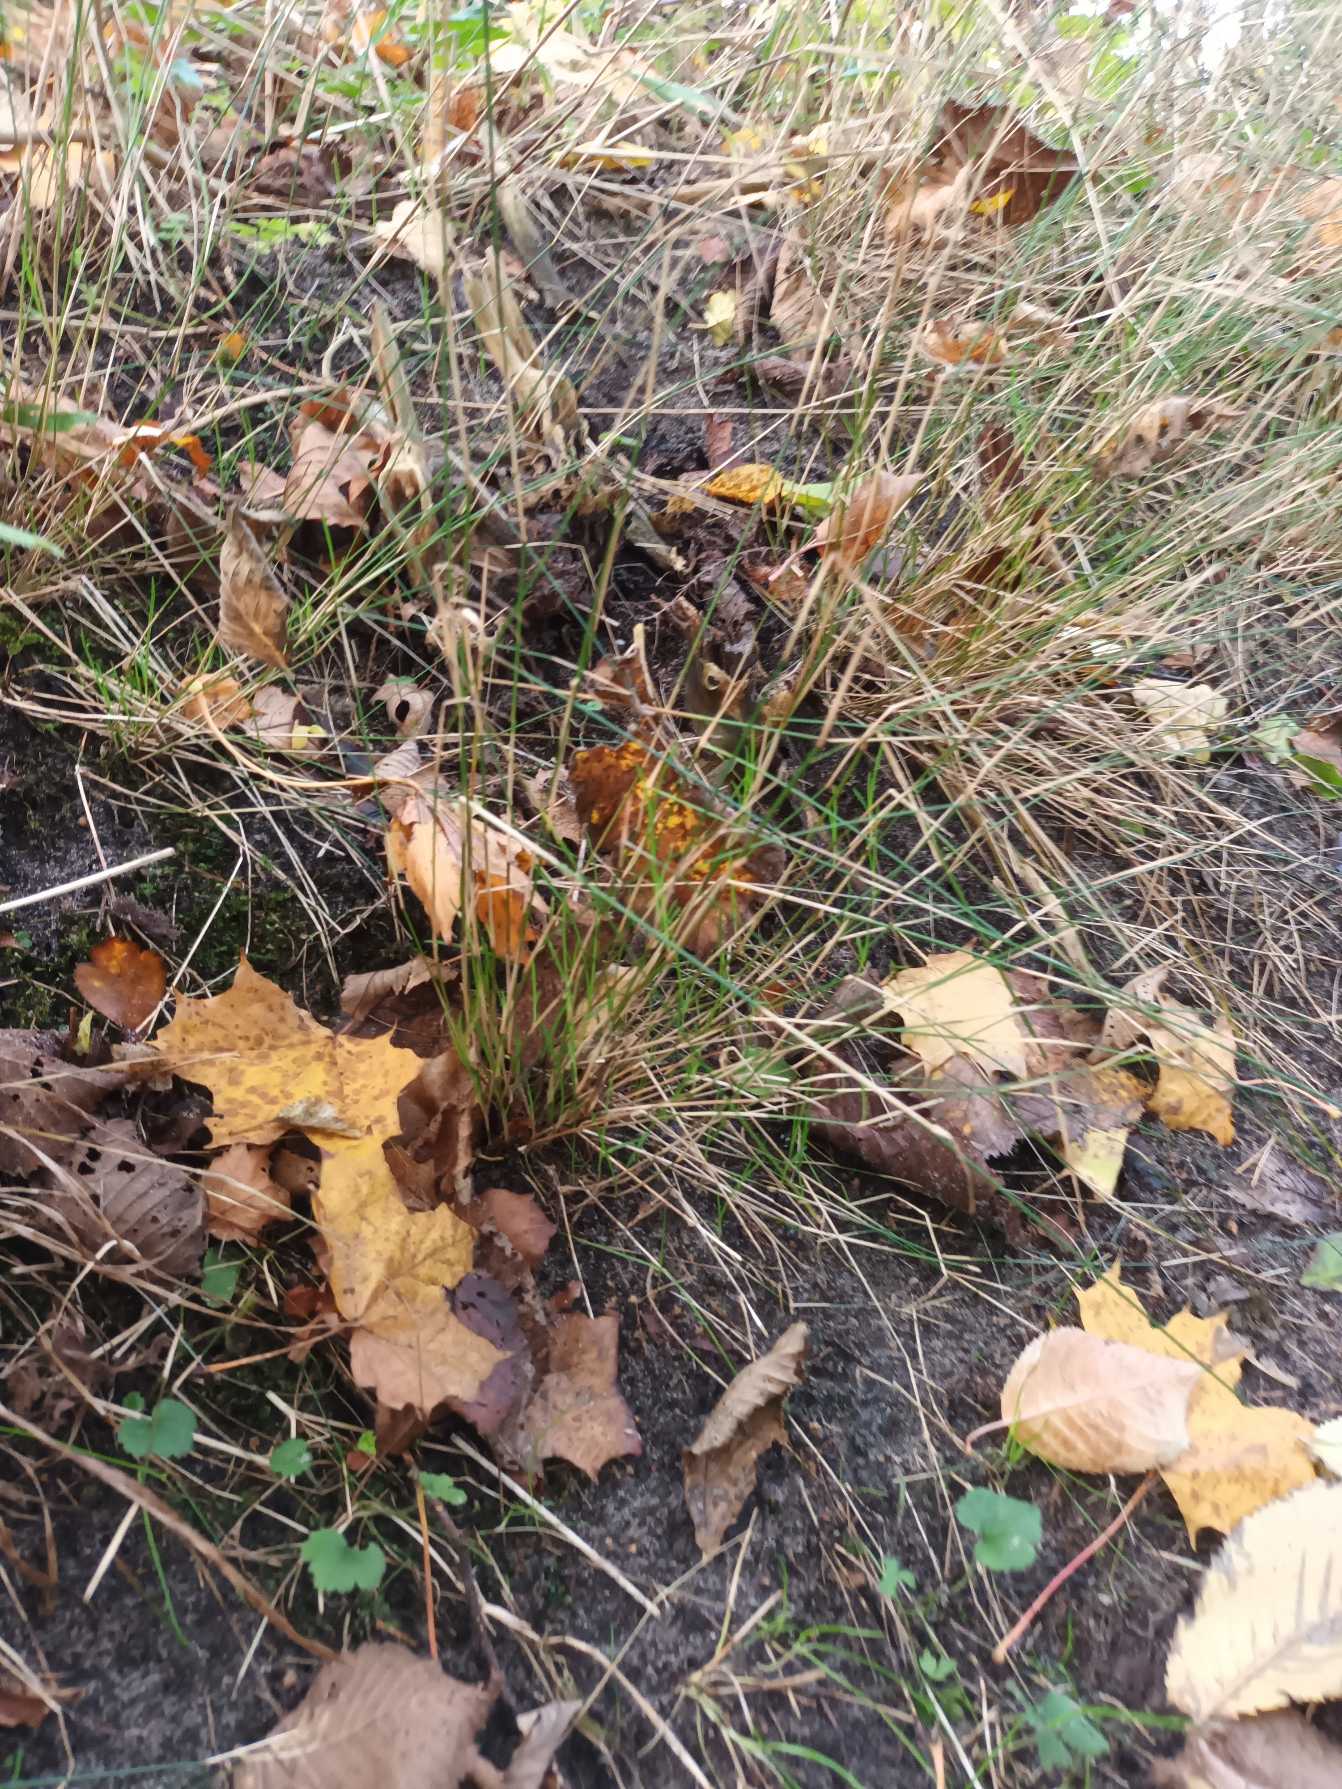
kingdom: Plantae
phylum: Tracheophyta
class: Liliopsida
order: Poales
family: Poaceae
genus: Poa
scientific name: Poa nemoralis
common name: Lund-rapgræs
